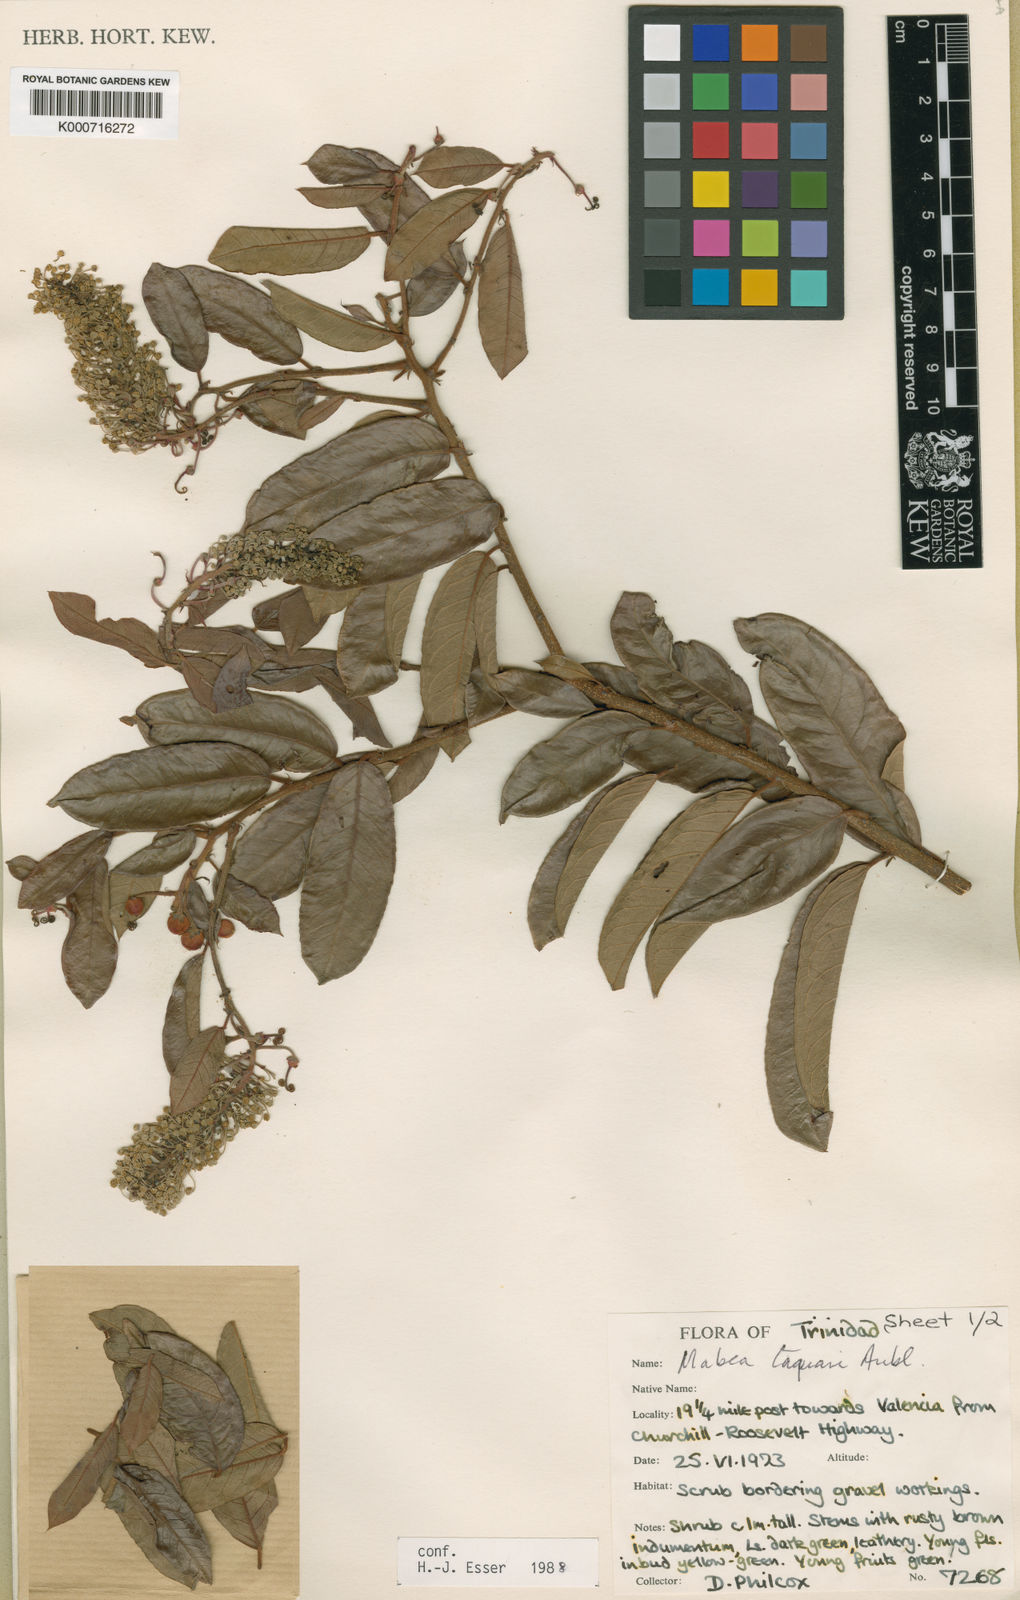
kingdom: Plantae
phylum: Tracheophyta
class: Magnoliopsida
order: Malpighiales
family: Euphorbiaceae
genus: Mabea
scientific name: Mabea taquari
